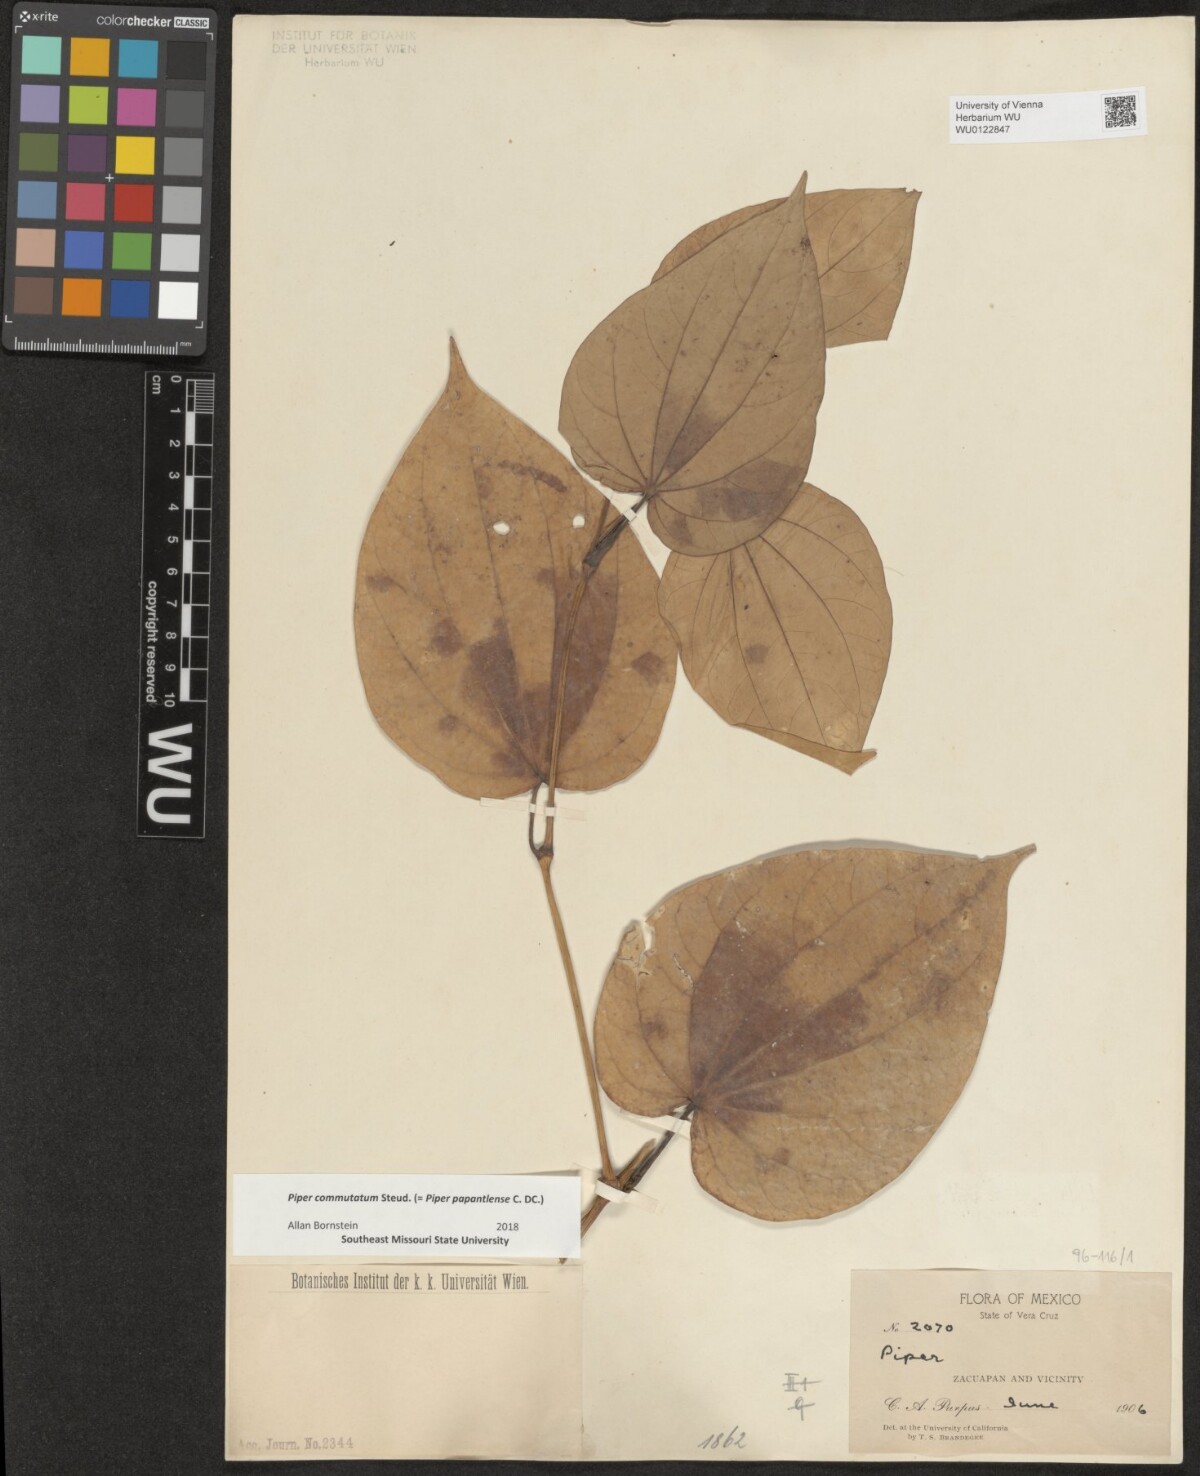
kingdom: Plantae
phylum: Tracheophyta
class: Magnoliopsida
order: Piperales
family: Piperaceae
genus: Piper
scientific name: Piper commutatum
